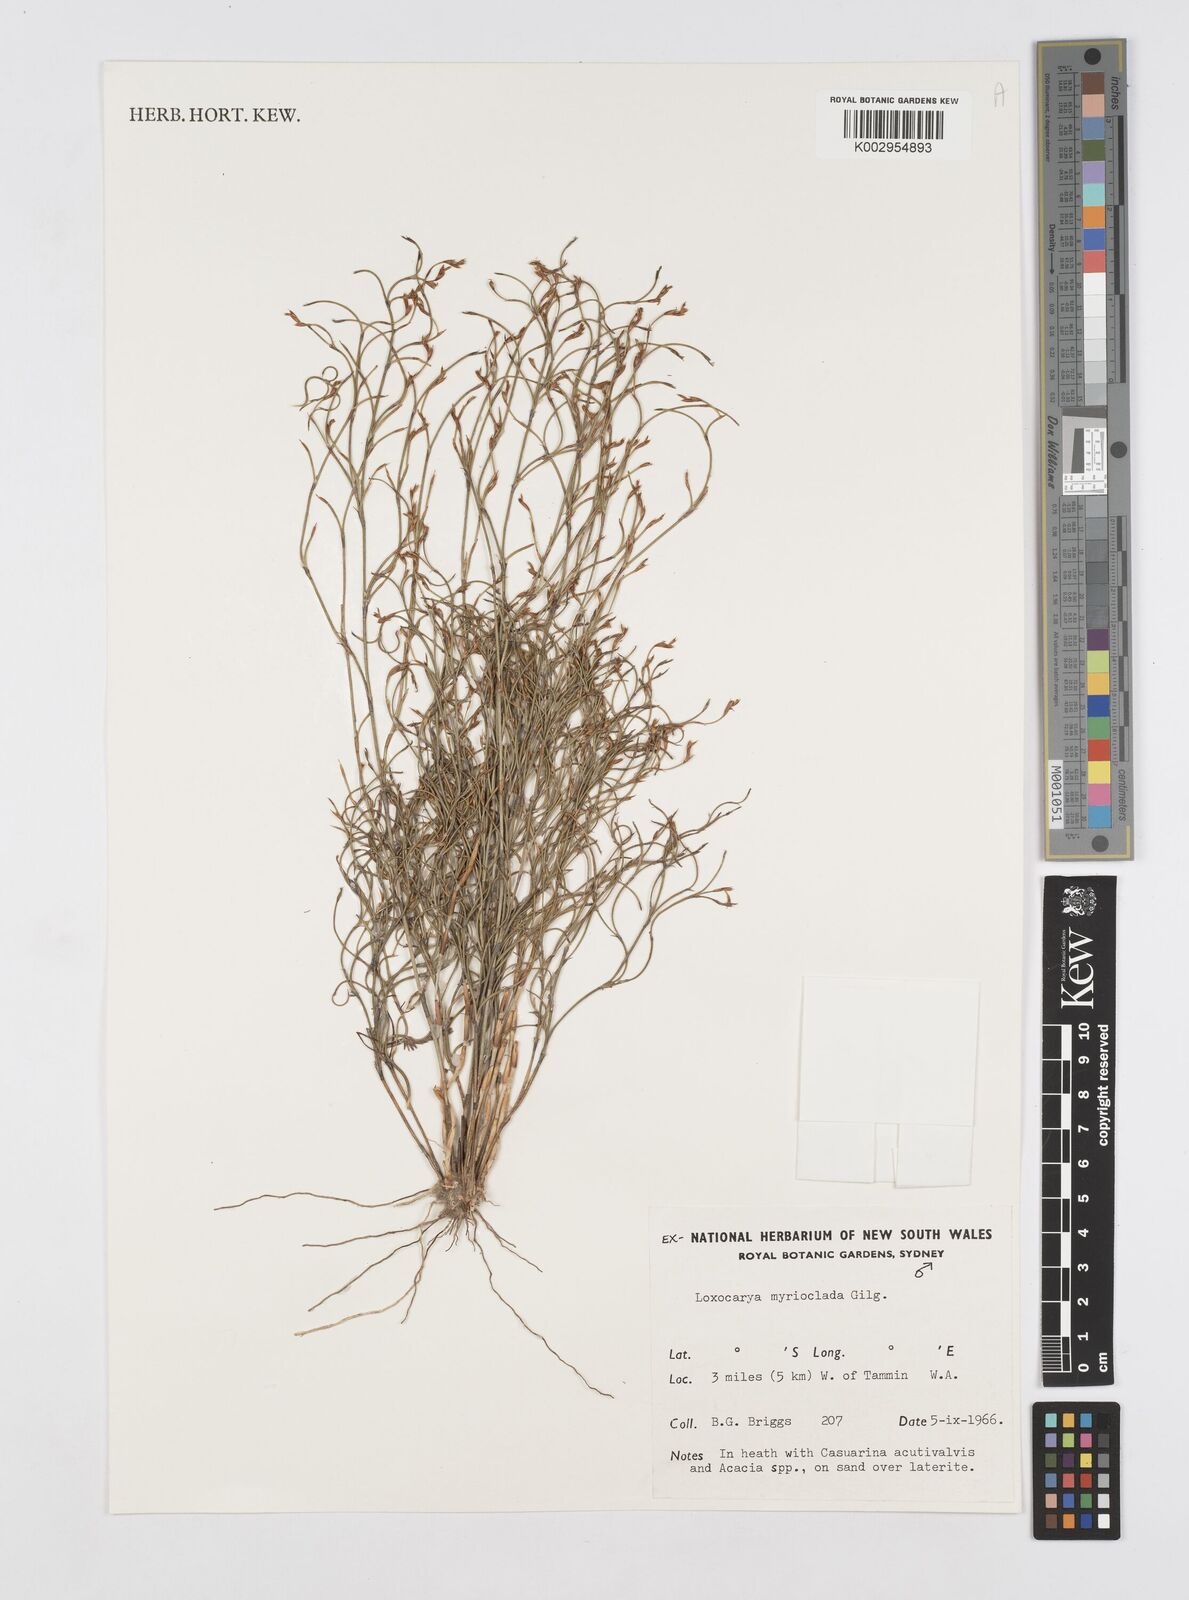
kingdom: Plantae
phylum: Tracheophyta
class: Liliopsida
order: Poales
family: Restionaceae
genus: Desmocladus
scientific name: Desmocladus myriocladus
